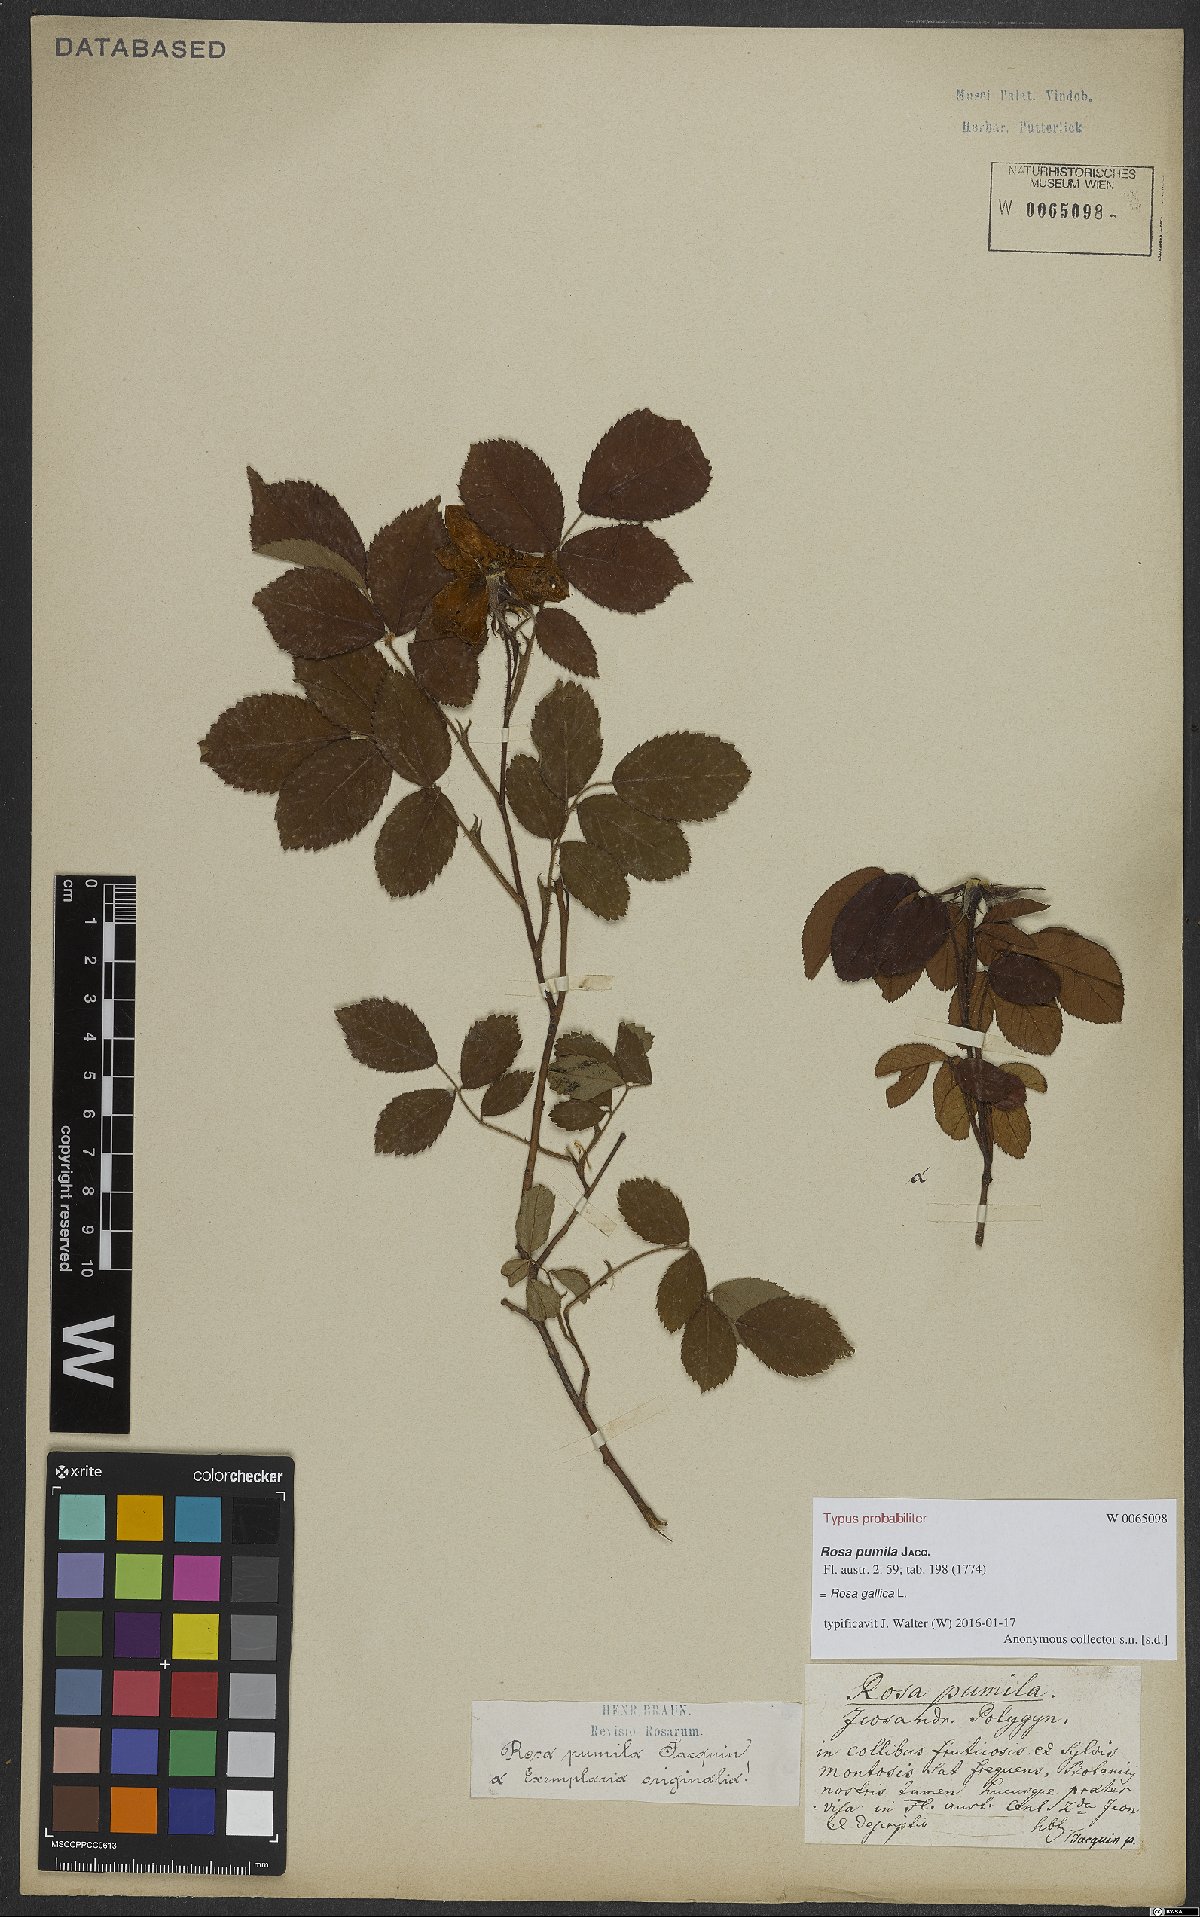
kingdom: Plantae
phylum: Tracheophyta
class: Magnoliopsida
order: Rosales
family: Rosaceae
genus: Rosa
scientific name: Rosa gallica
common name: French rose
